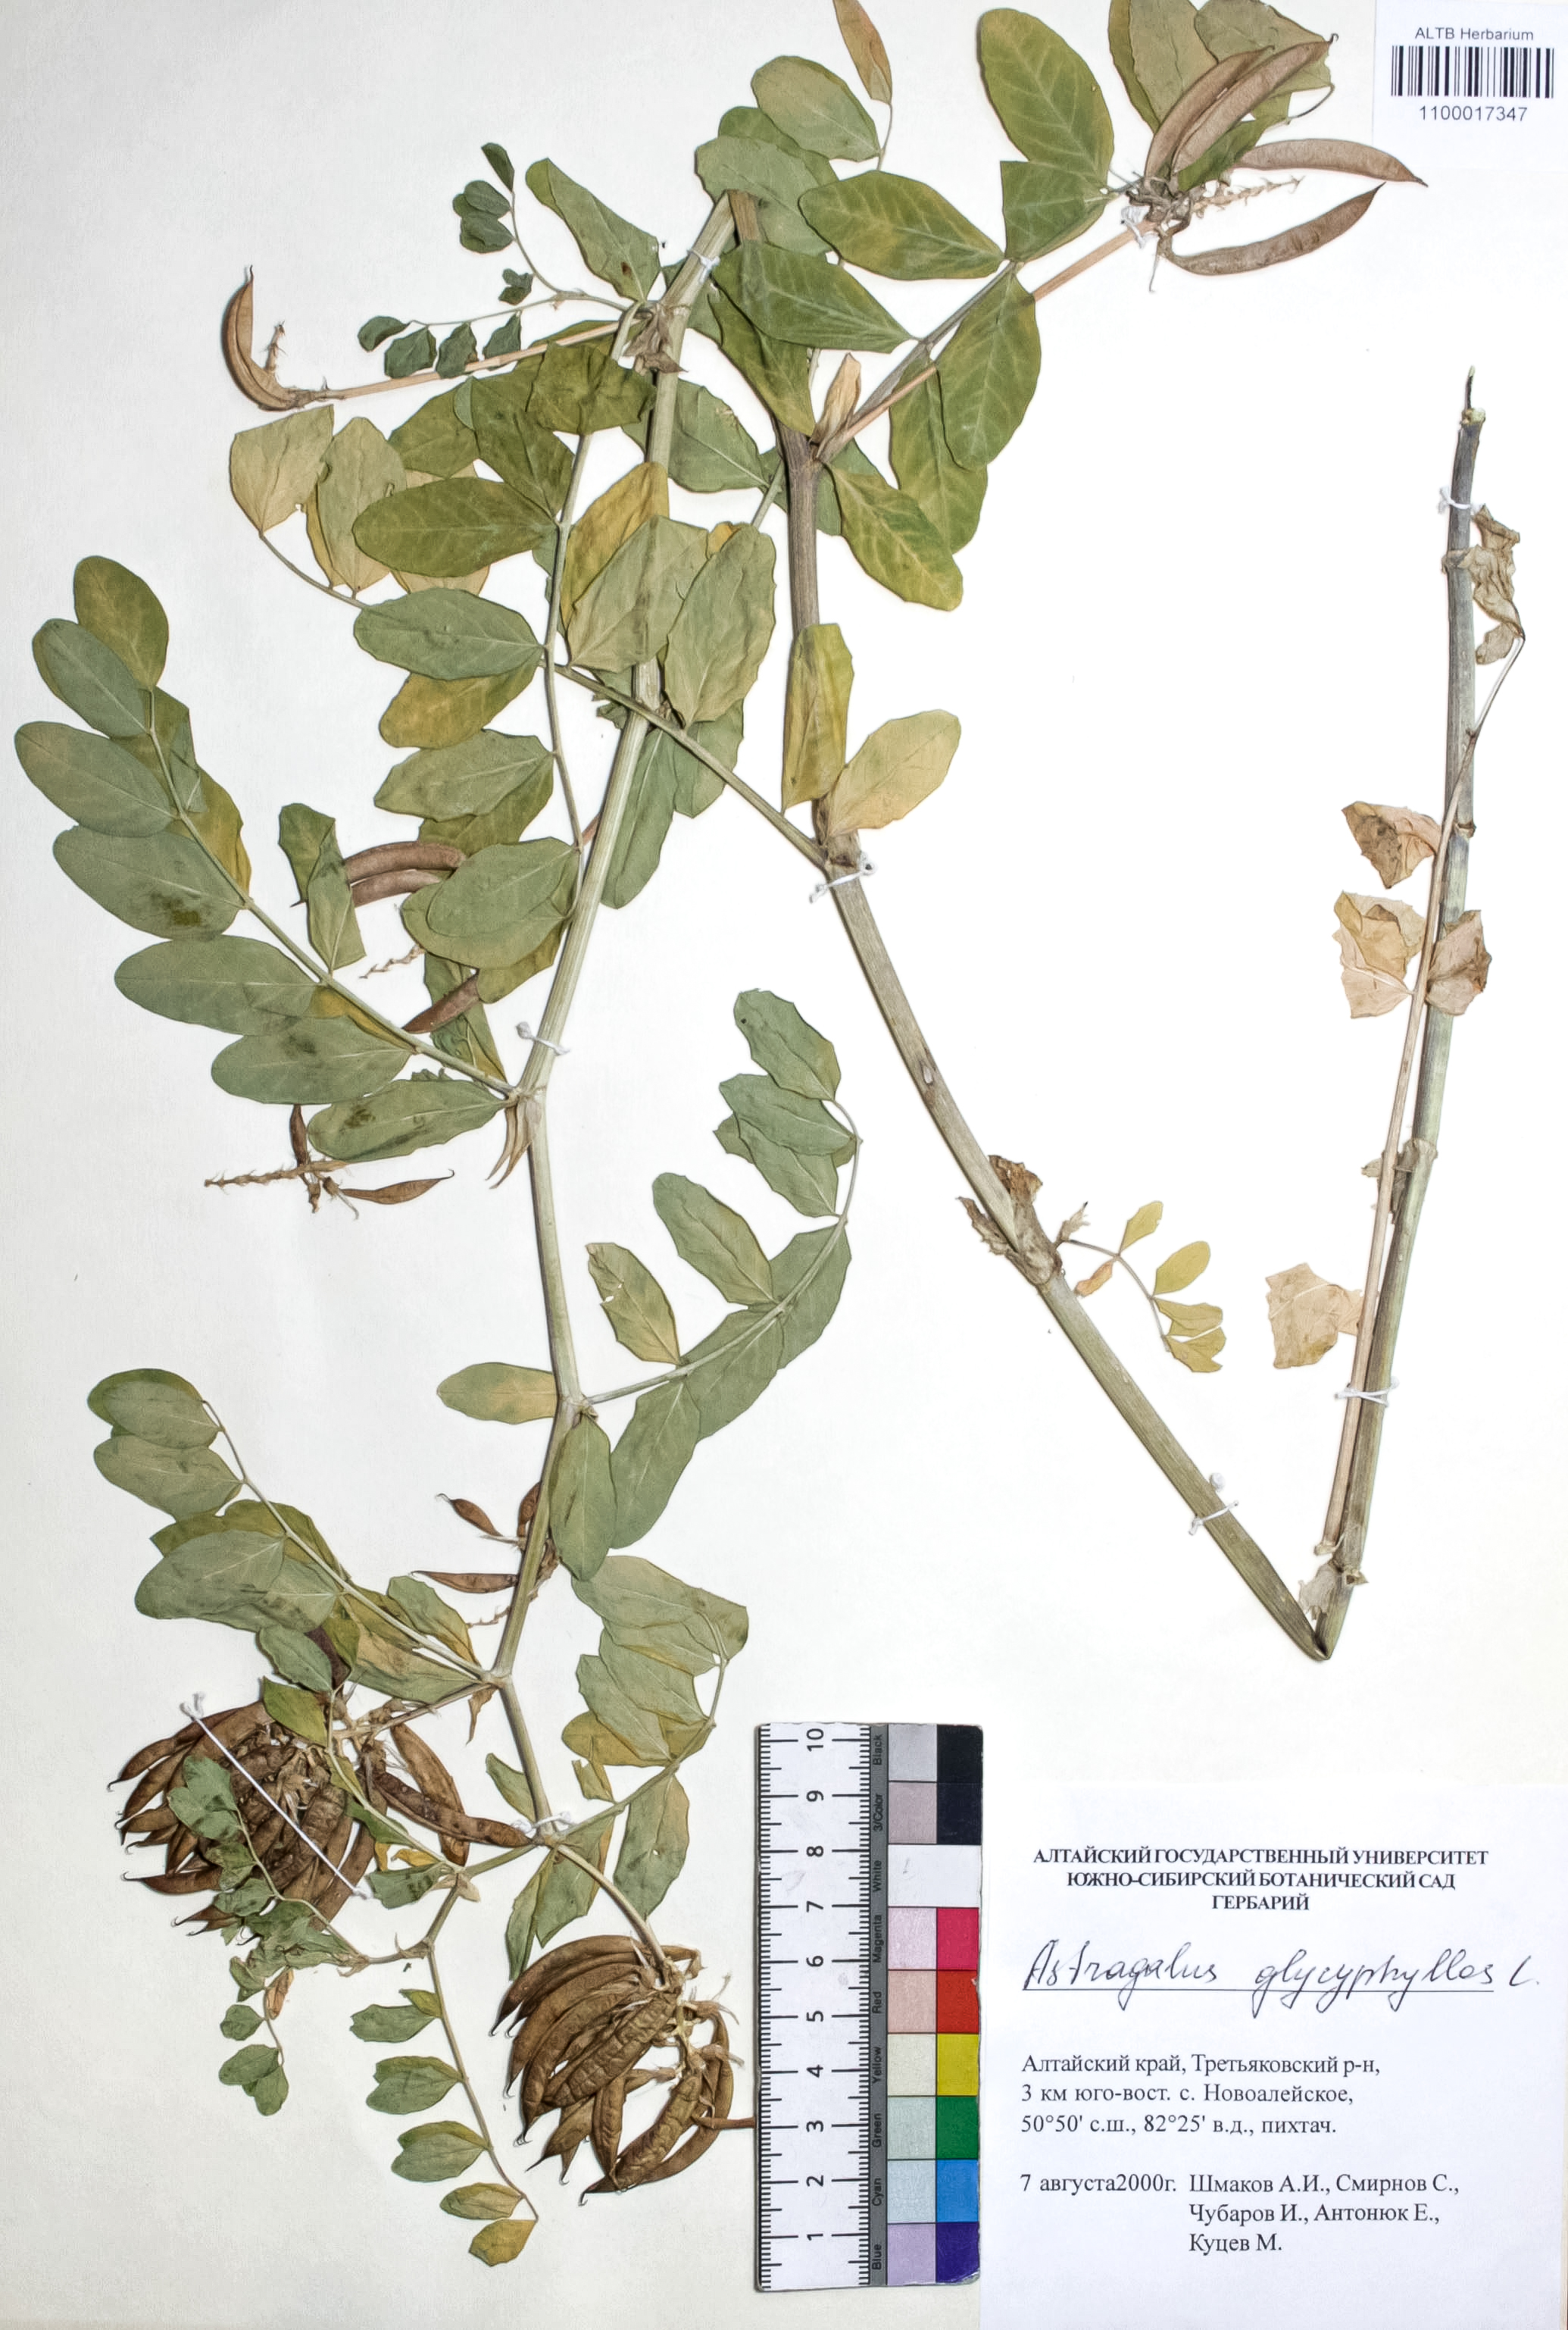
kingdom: Plantae
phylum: Tracheophyta
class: Magnoliopsida
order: Fabales
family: Fabaceae
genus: Astragalus
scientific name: Astragalus glycyphyllos
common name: Wild liquorice
